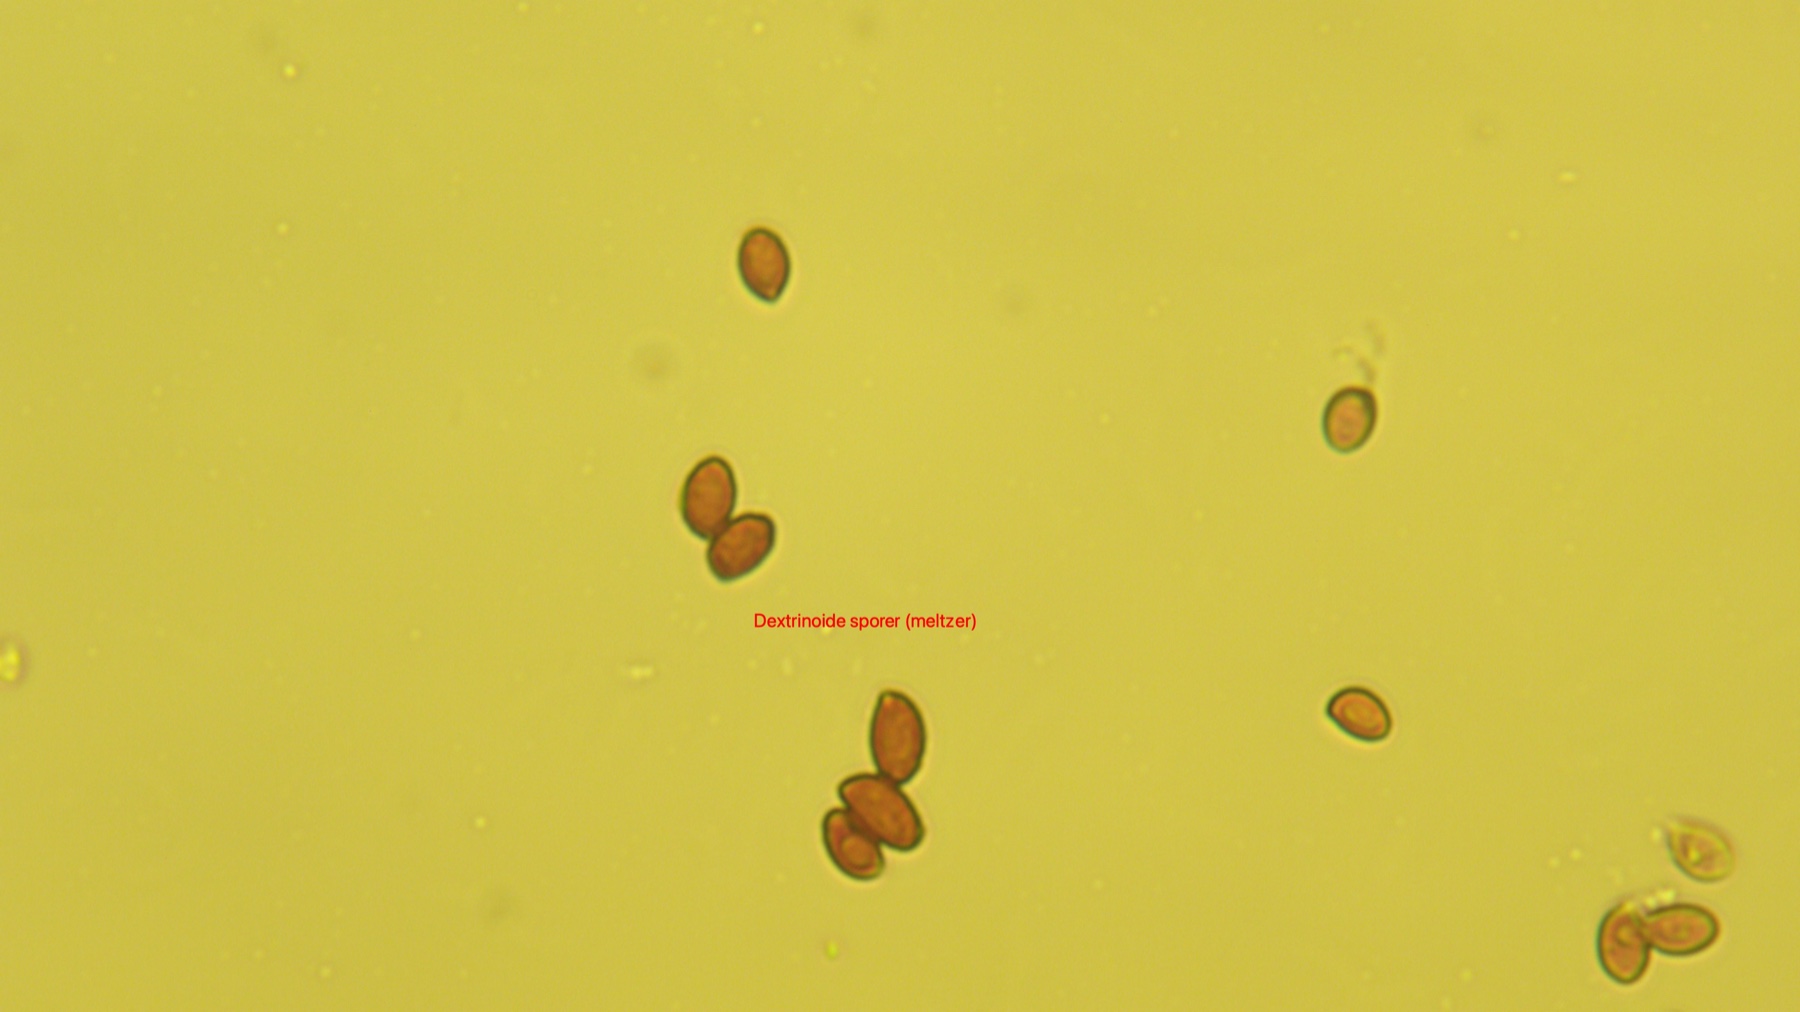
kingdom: Fungi
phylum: Basidiomycota
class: Agaricomycetes
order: Agaricales
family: Cortinariaceae
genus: Cortinarius
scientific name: Cortinarius castaneopallidus
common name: bronzetrævlet slørhat
